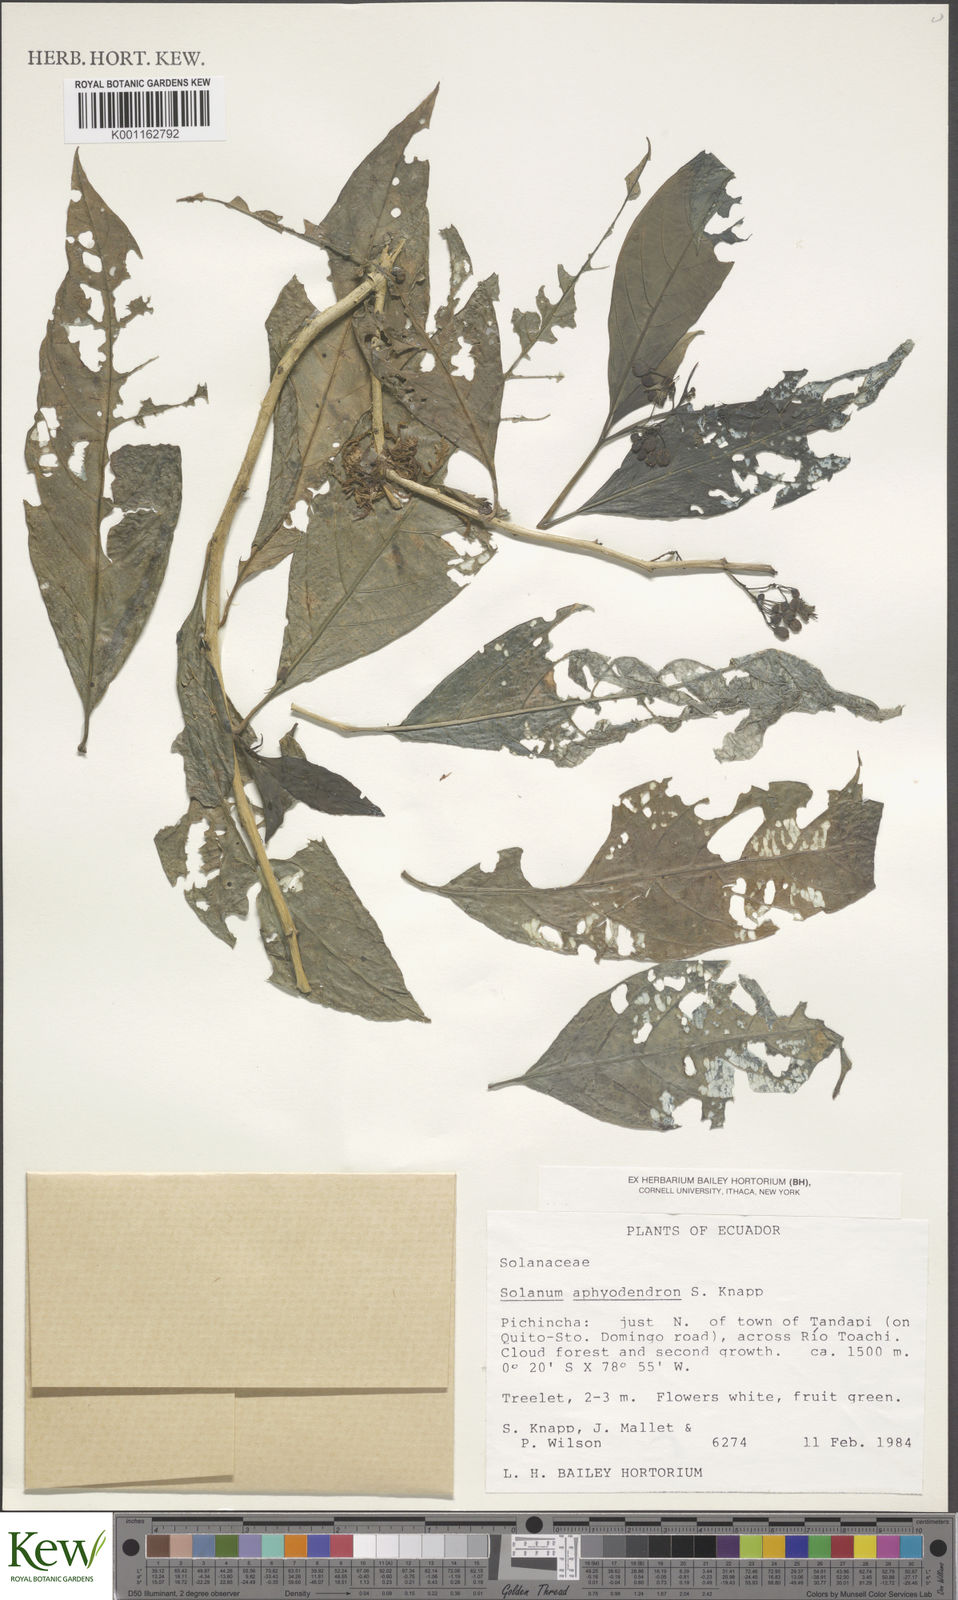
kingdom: Plantae
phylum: Tracheophyta
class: Magnoliopsida
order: Solanales
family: Solanaceae
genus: Solanum
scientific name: Solanum aphyodendron
